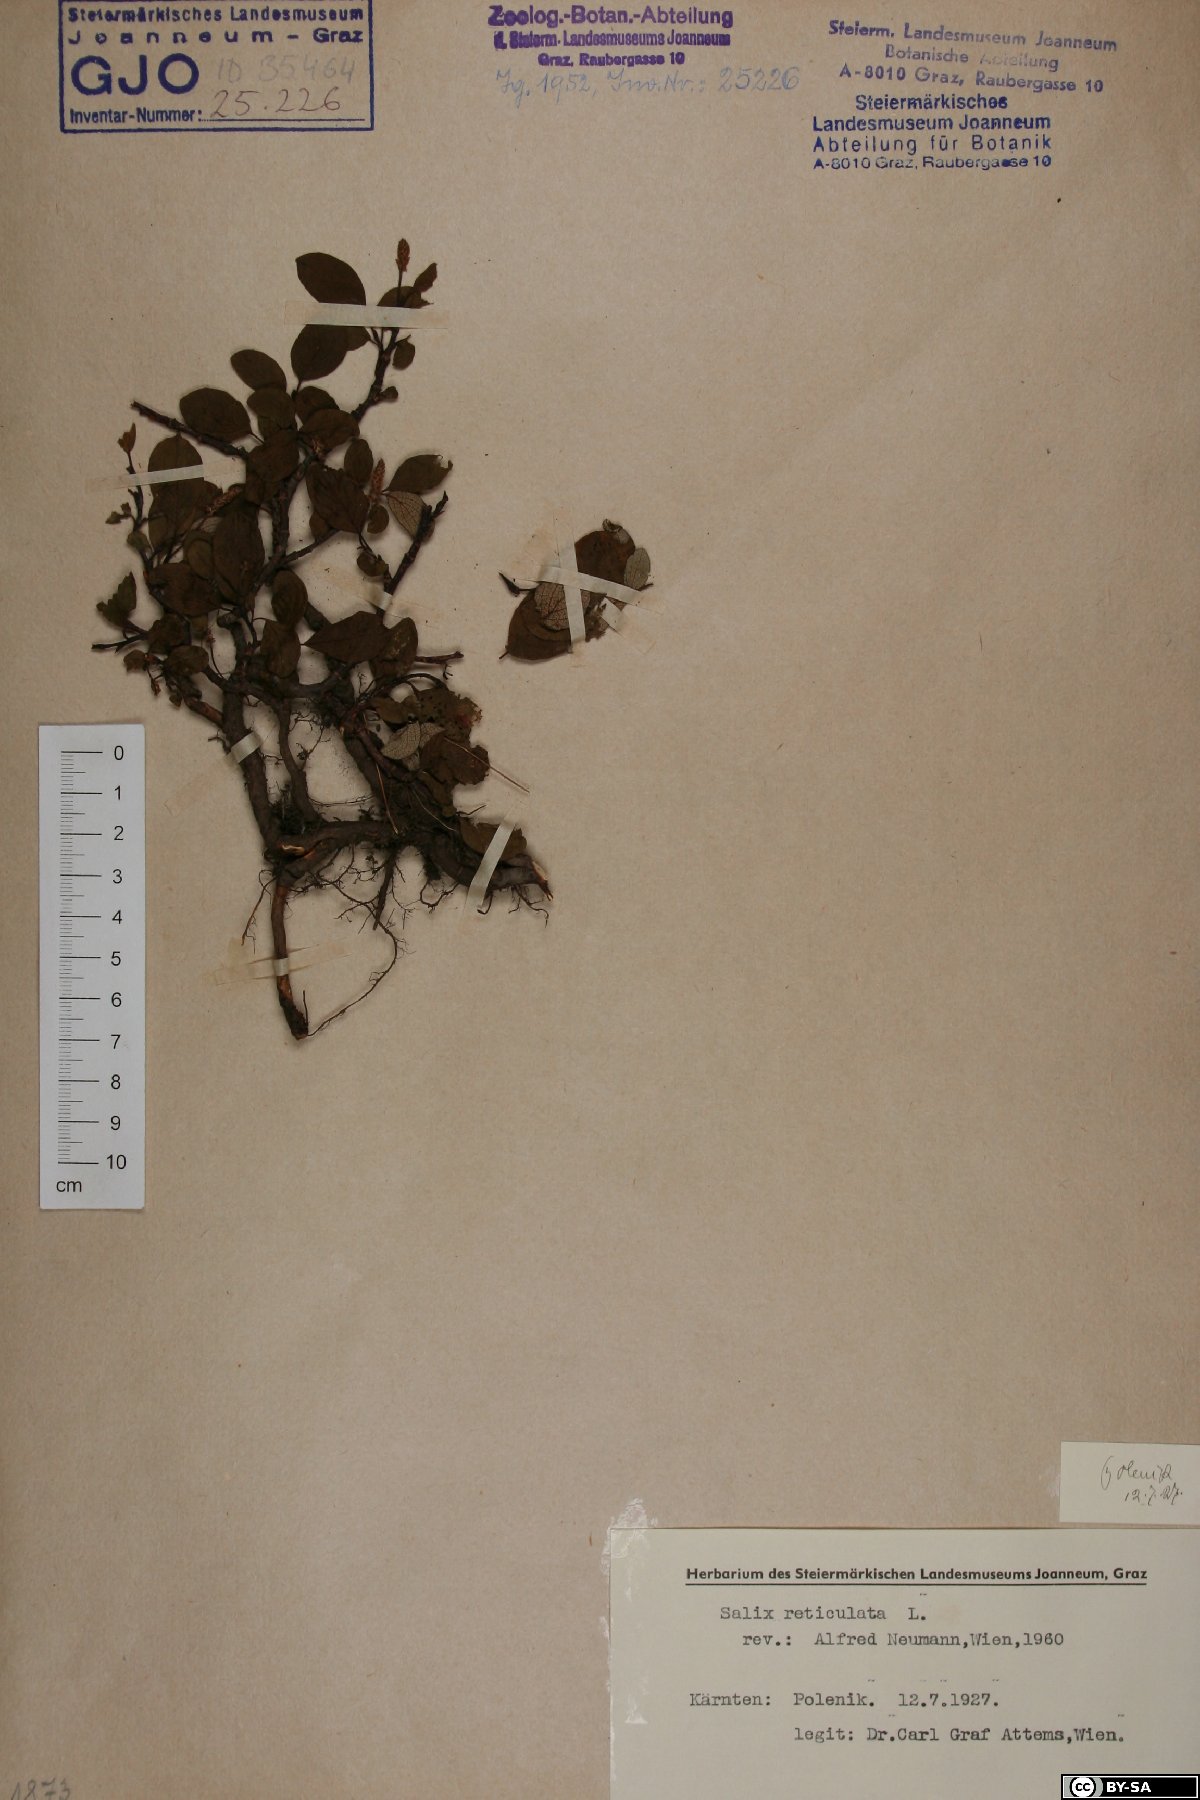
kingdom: Plantae
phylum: Tracheophyta
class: Magnoliopsida
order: Malpighiales
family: Salicaceae
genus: Salix
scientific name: Salix reticulata
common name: Net-leaved willow
